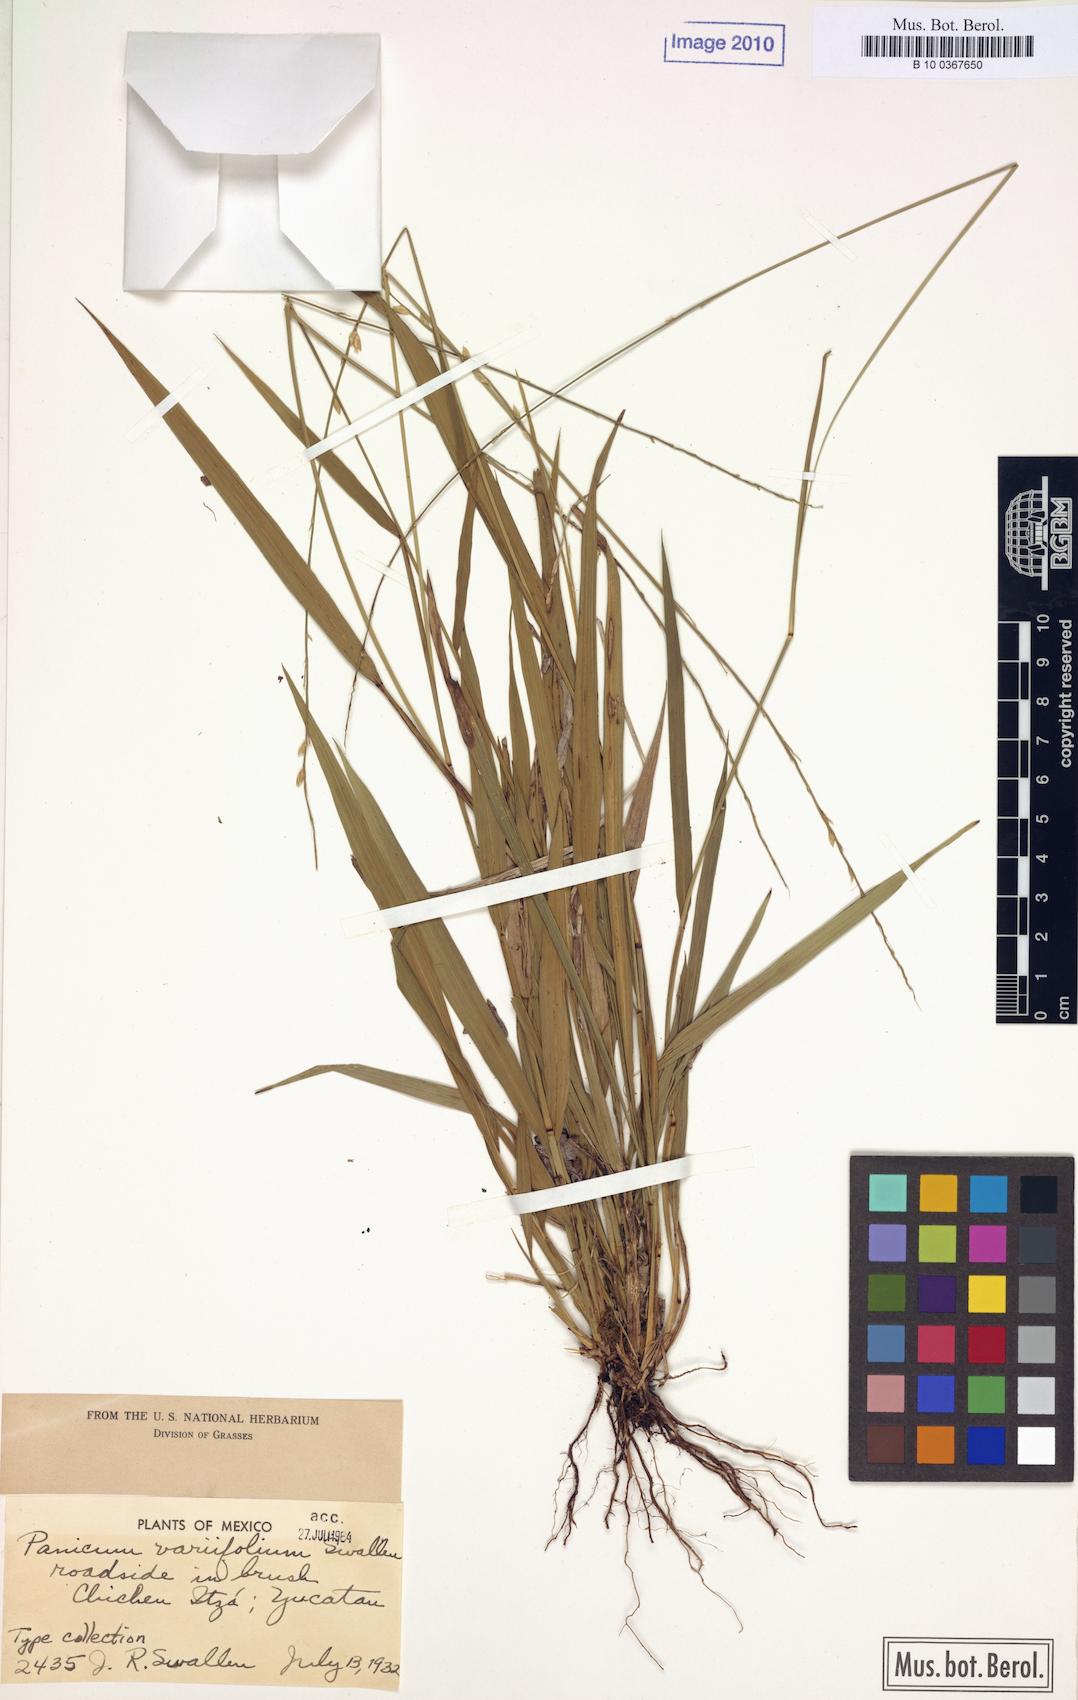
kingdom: Plantae
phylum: Tracheophyta
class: Liliopsida
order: Poales
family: Poaceae
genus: Setaria
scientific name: Setaria variifolia
